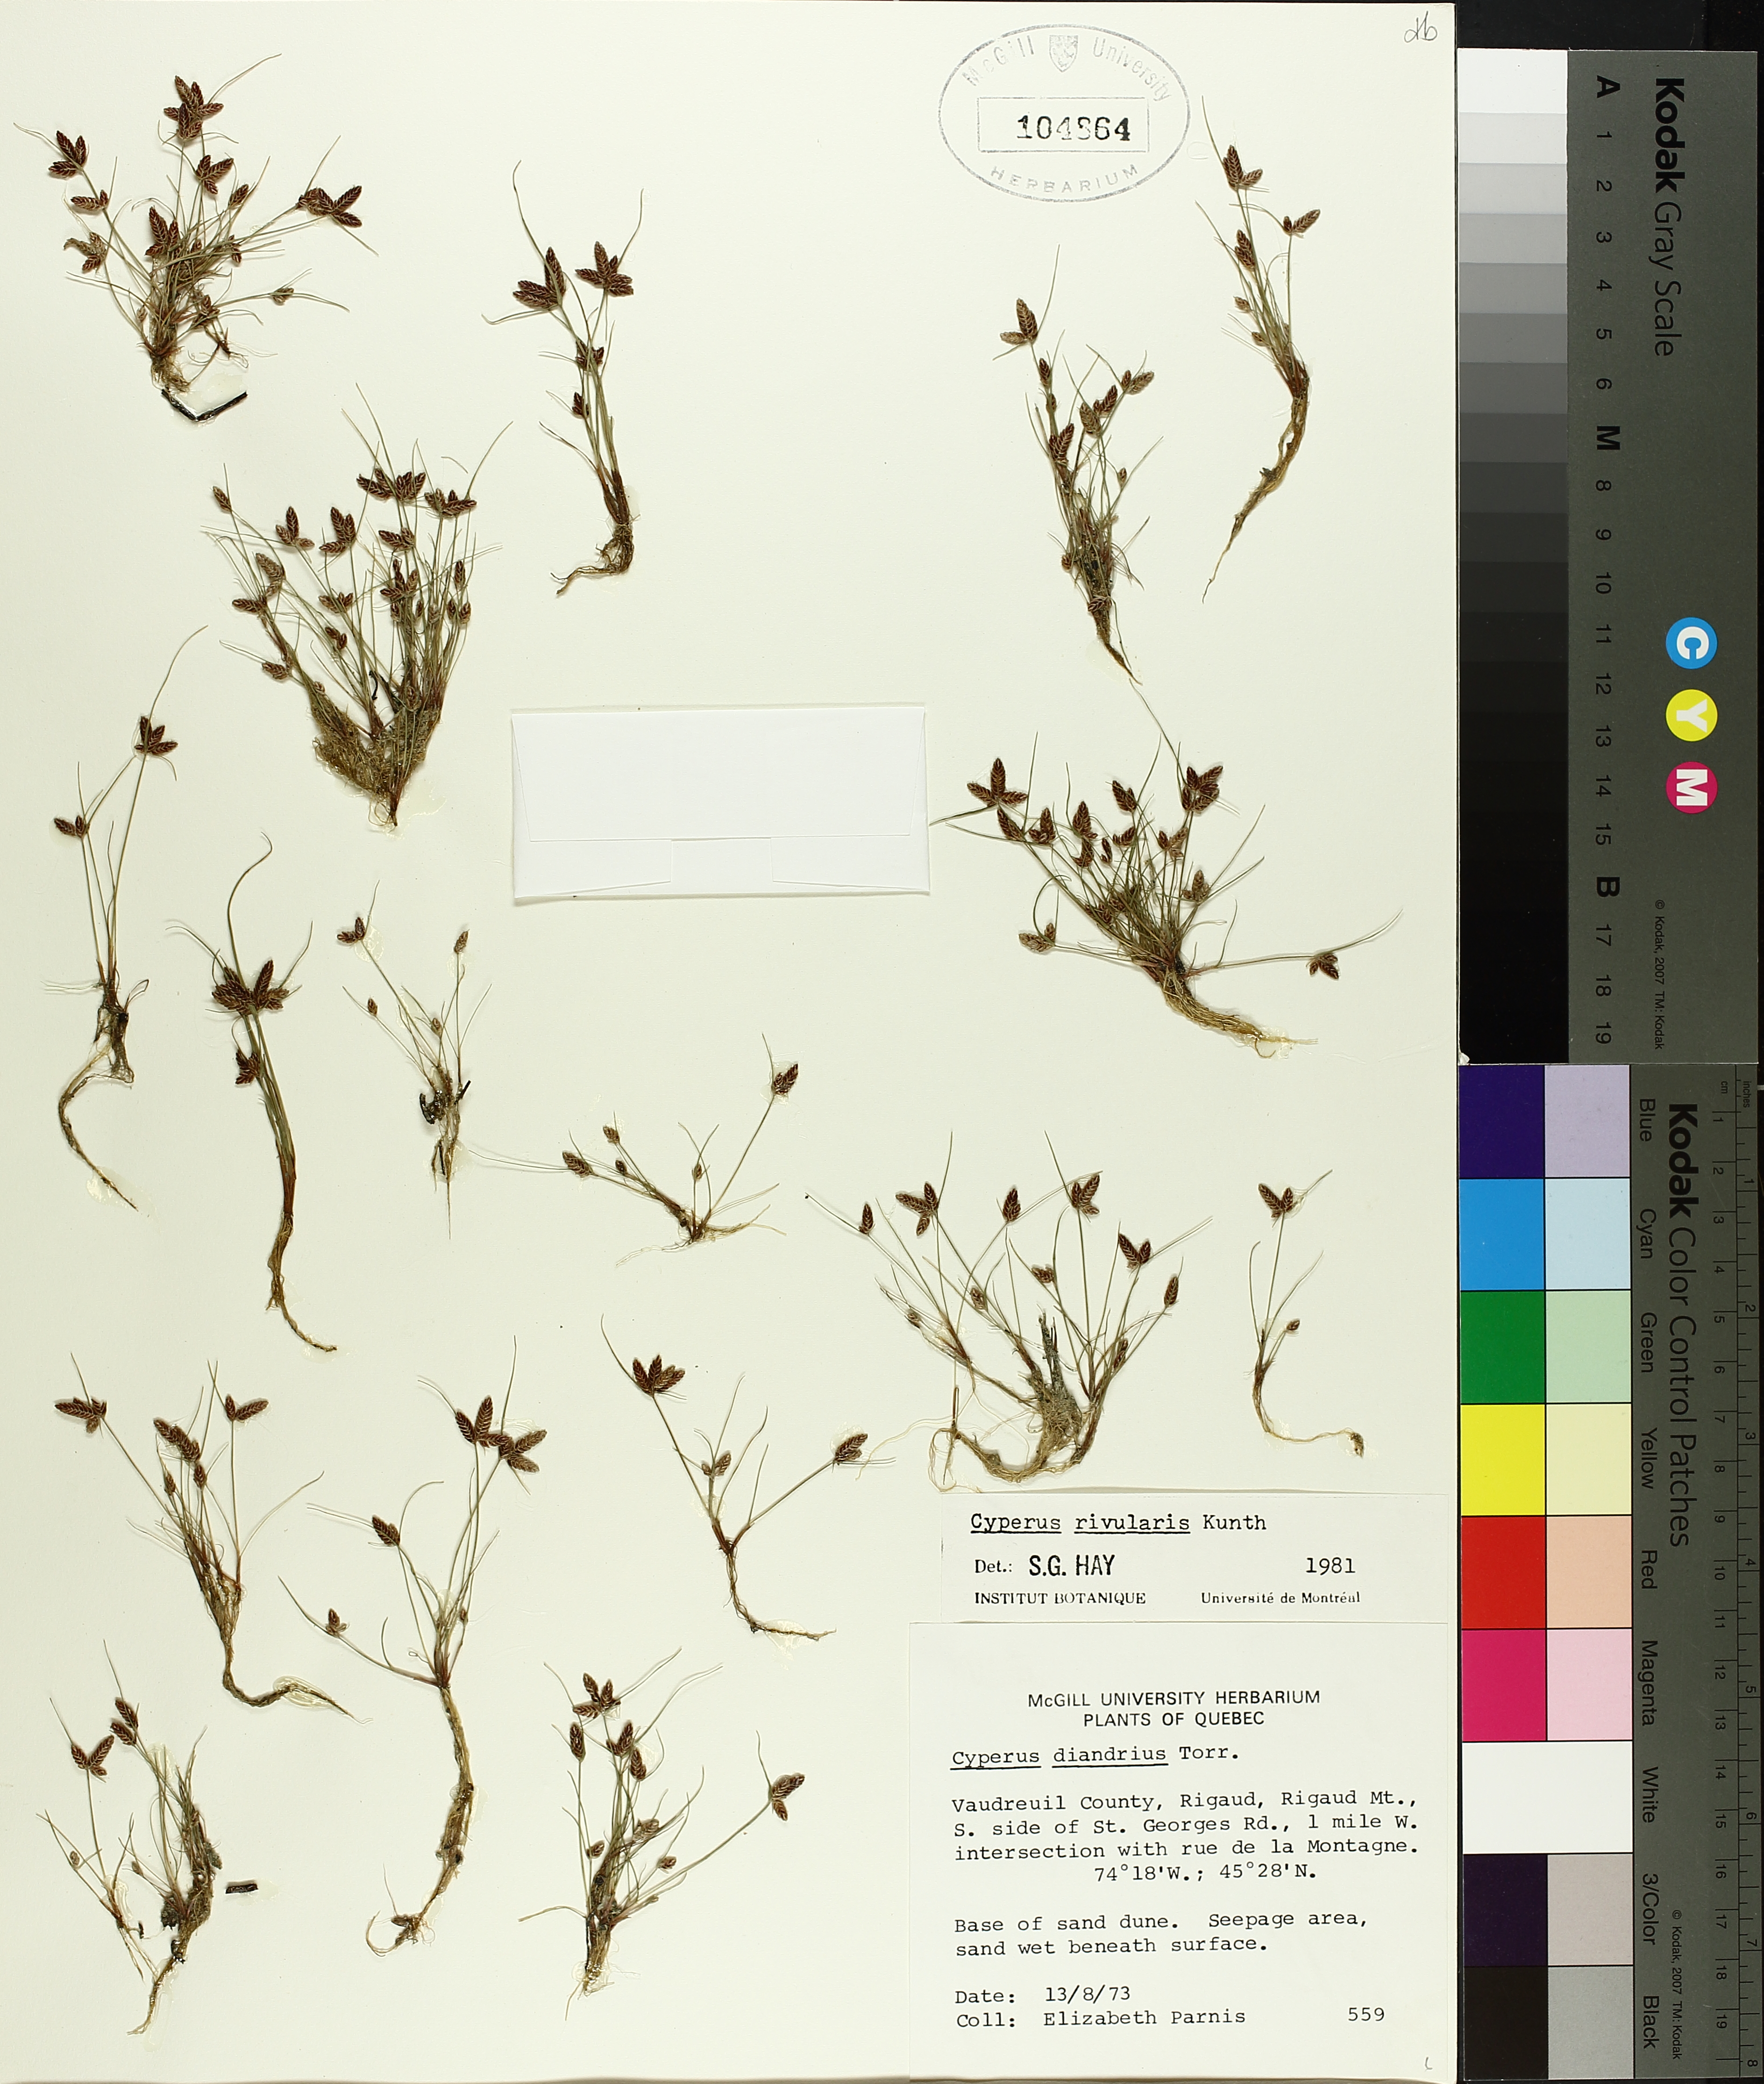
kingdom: Plantae
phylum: Tracheophyta
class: Liliopsida
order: Poales
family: Cyperaceae
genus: Cyperus
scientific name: Cyperus bipartitus
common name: Brook flatsedge
